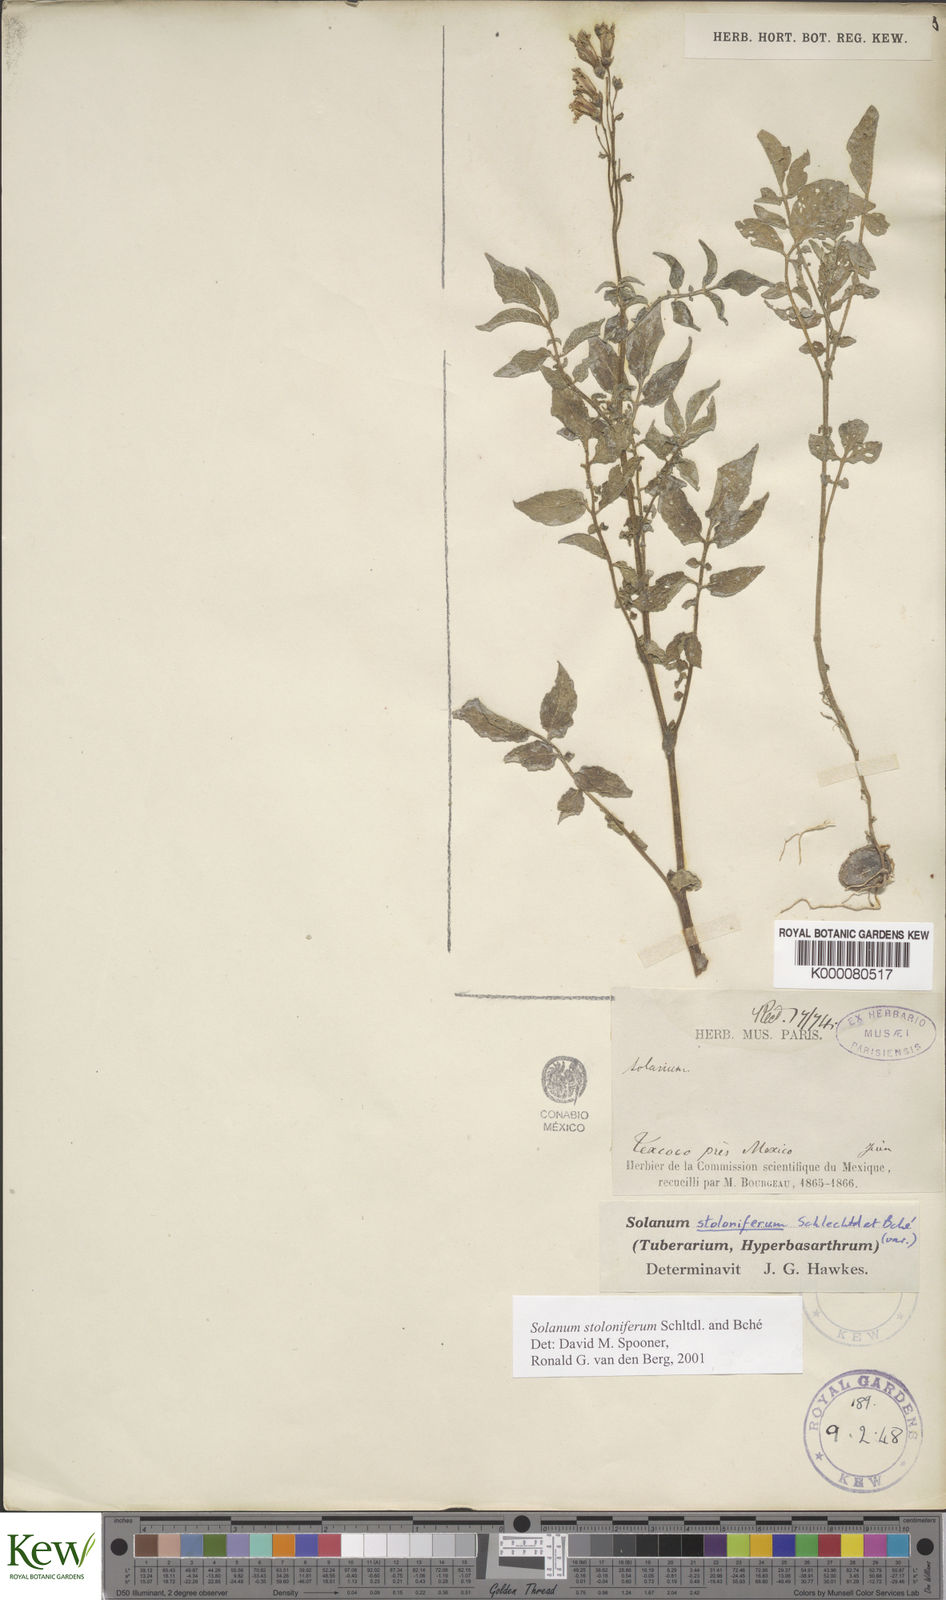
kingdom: Plantae
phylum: Tracheophyta
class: Magnoliopsida
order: Solanales
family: Solanaceae
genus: Solanum
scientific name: Solanum stoloniferum
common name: Fendler's nighshade
